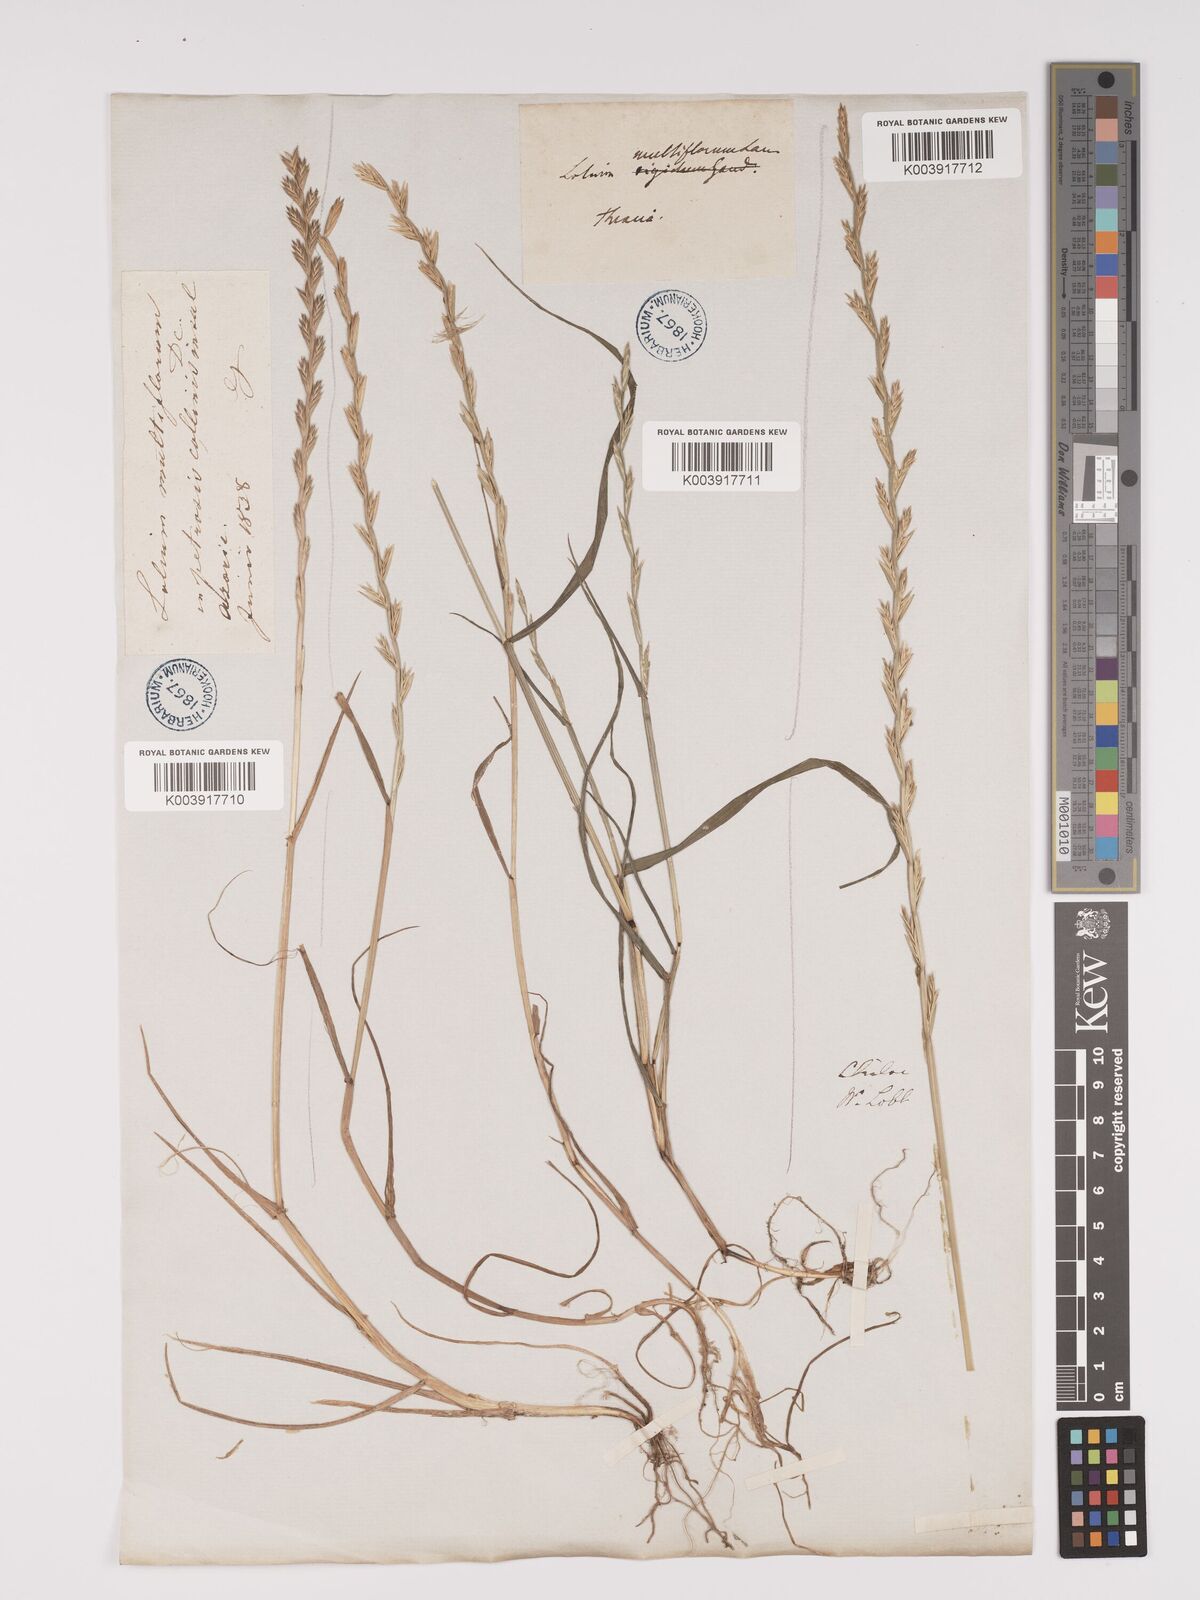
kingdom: Plantae
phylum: Tracheophyta
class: Liliopsida
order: Poales
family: Poaceae
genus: Lolium
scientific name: Lolium multiflorum
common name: Annual ryegrass
